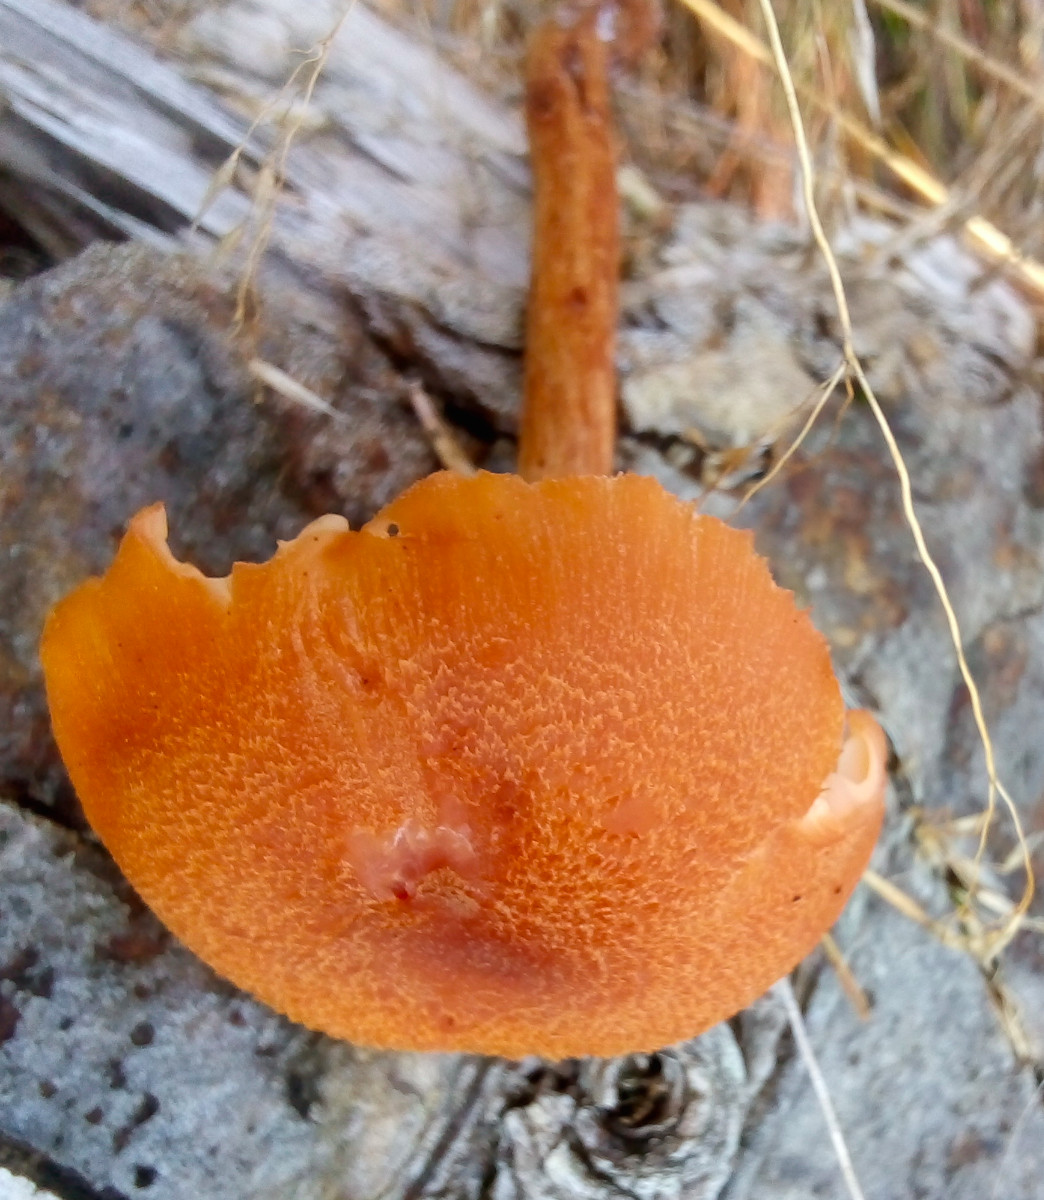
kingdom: Fungi
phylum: Basidiomycota
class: Agaricomycetes
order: Agaricales
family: Hydnangiaceae
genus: Laccaria
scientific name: Laccaria proxima
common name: stor ametysthat
